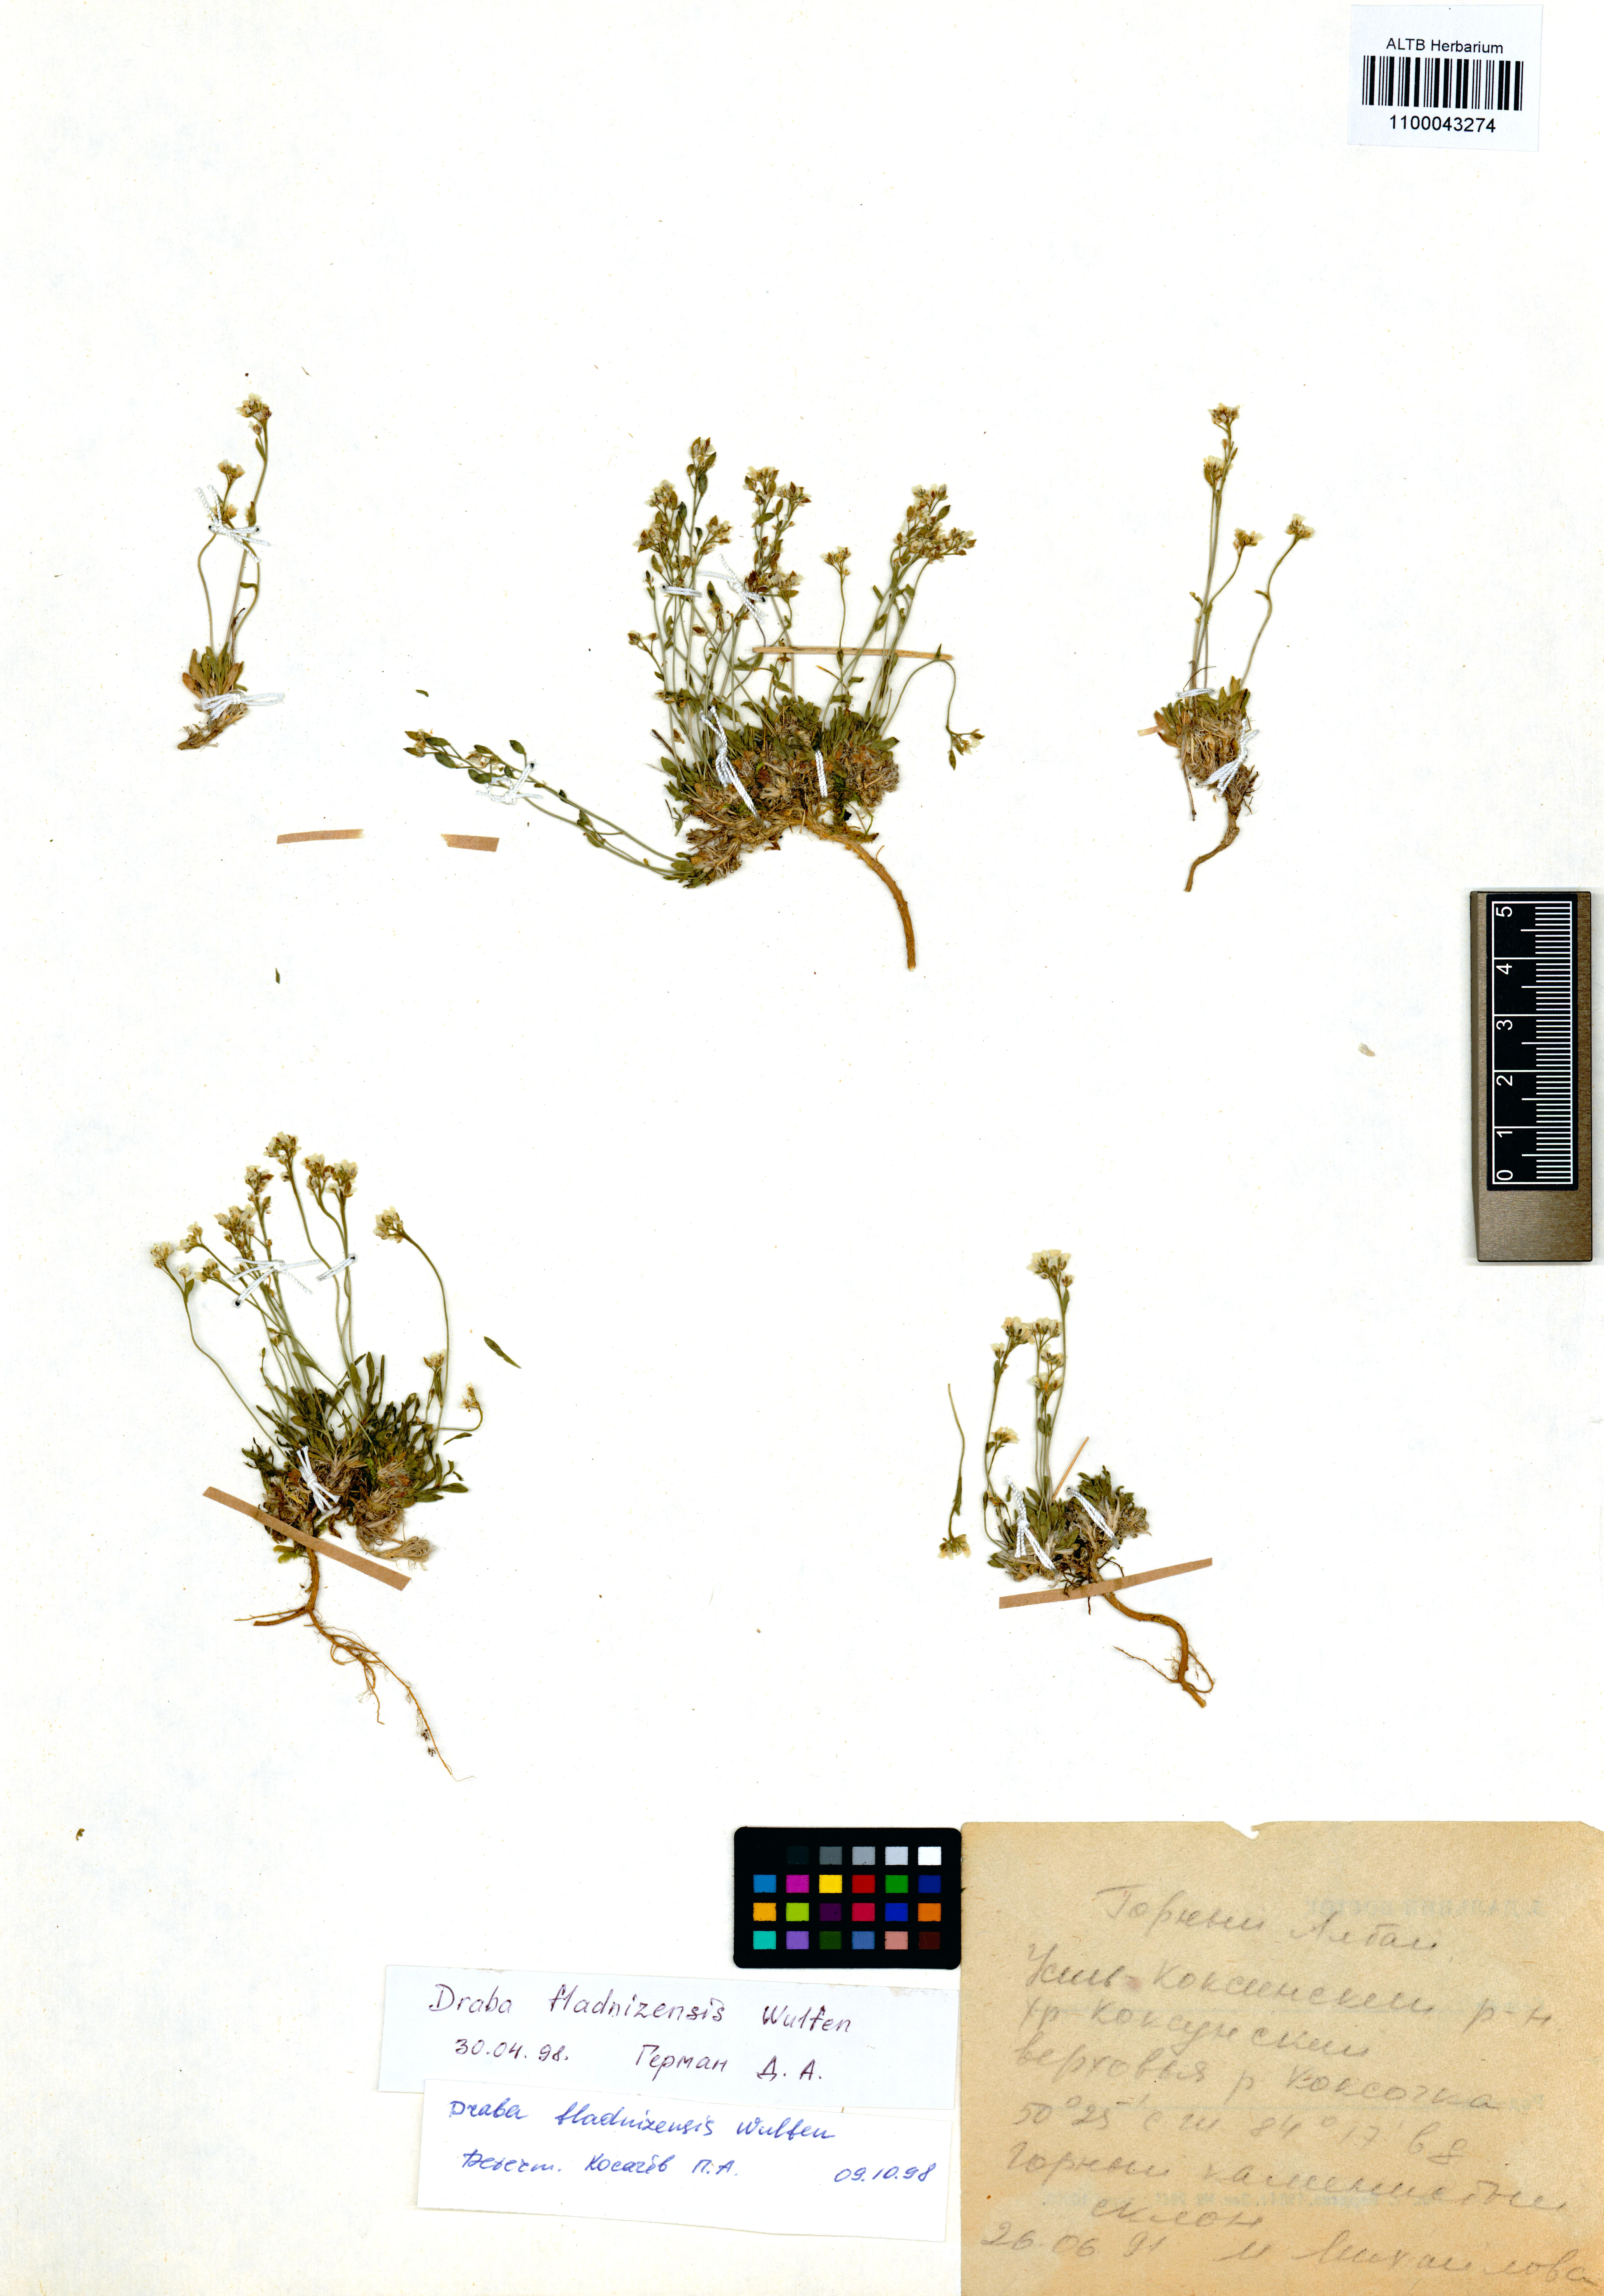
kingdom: Plantae
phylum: Tracheophyta
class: Magnoliopsida
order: Brassicales
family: Brassicaceae
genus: Draba
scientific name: Draba fladnizensis
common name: Austrian draba
